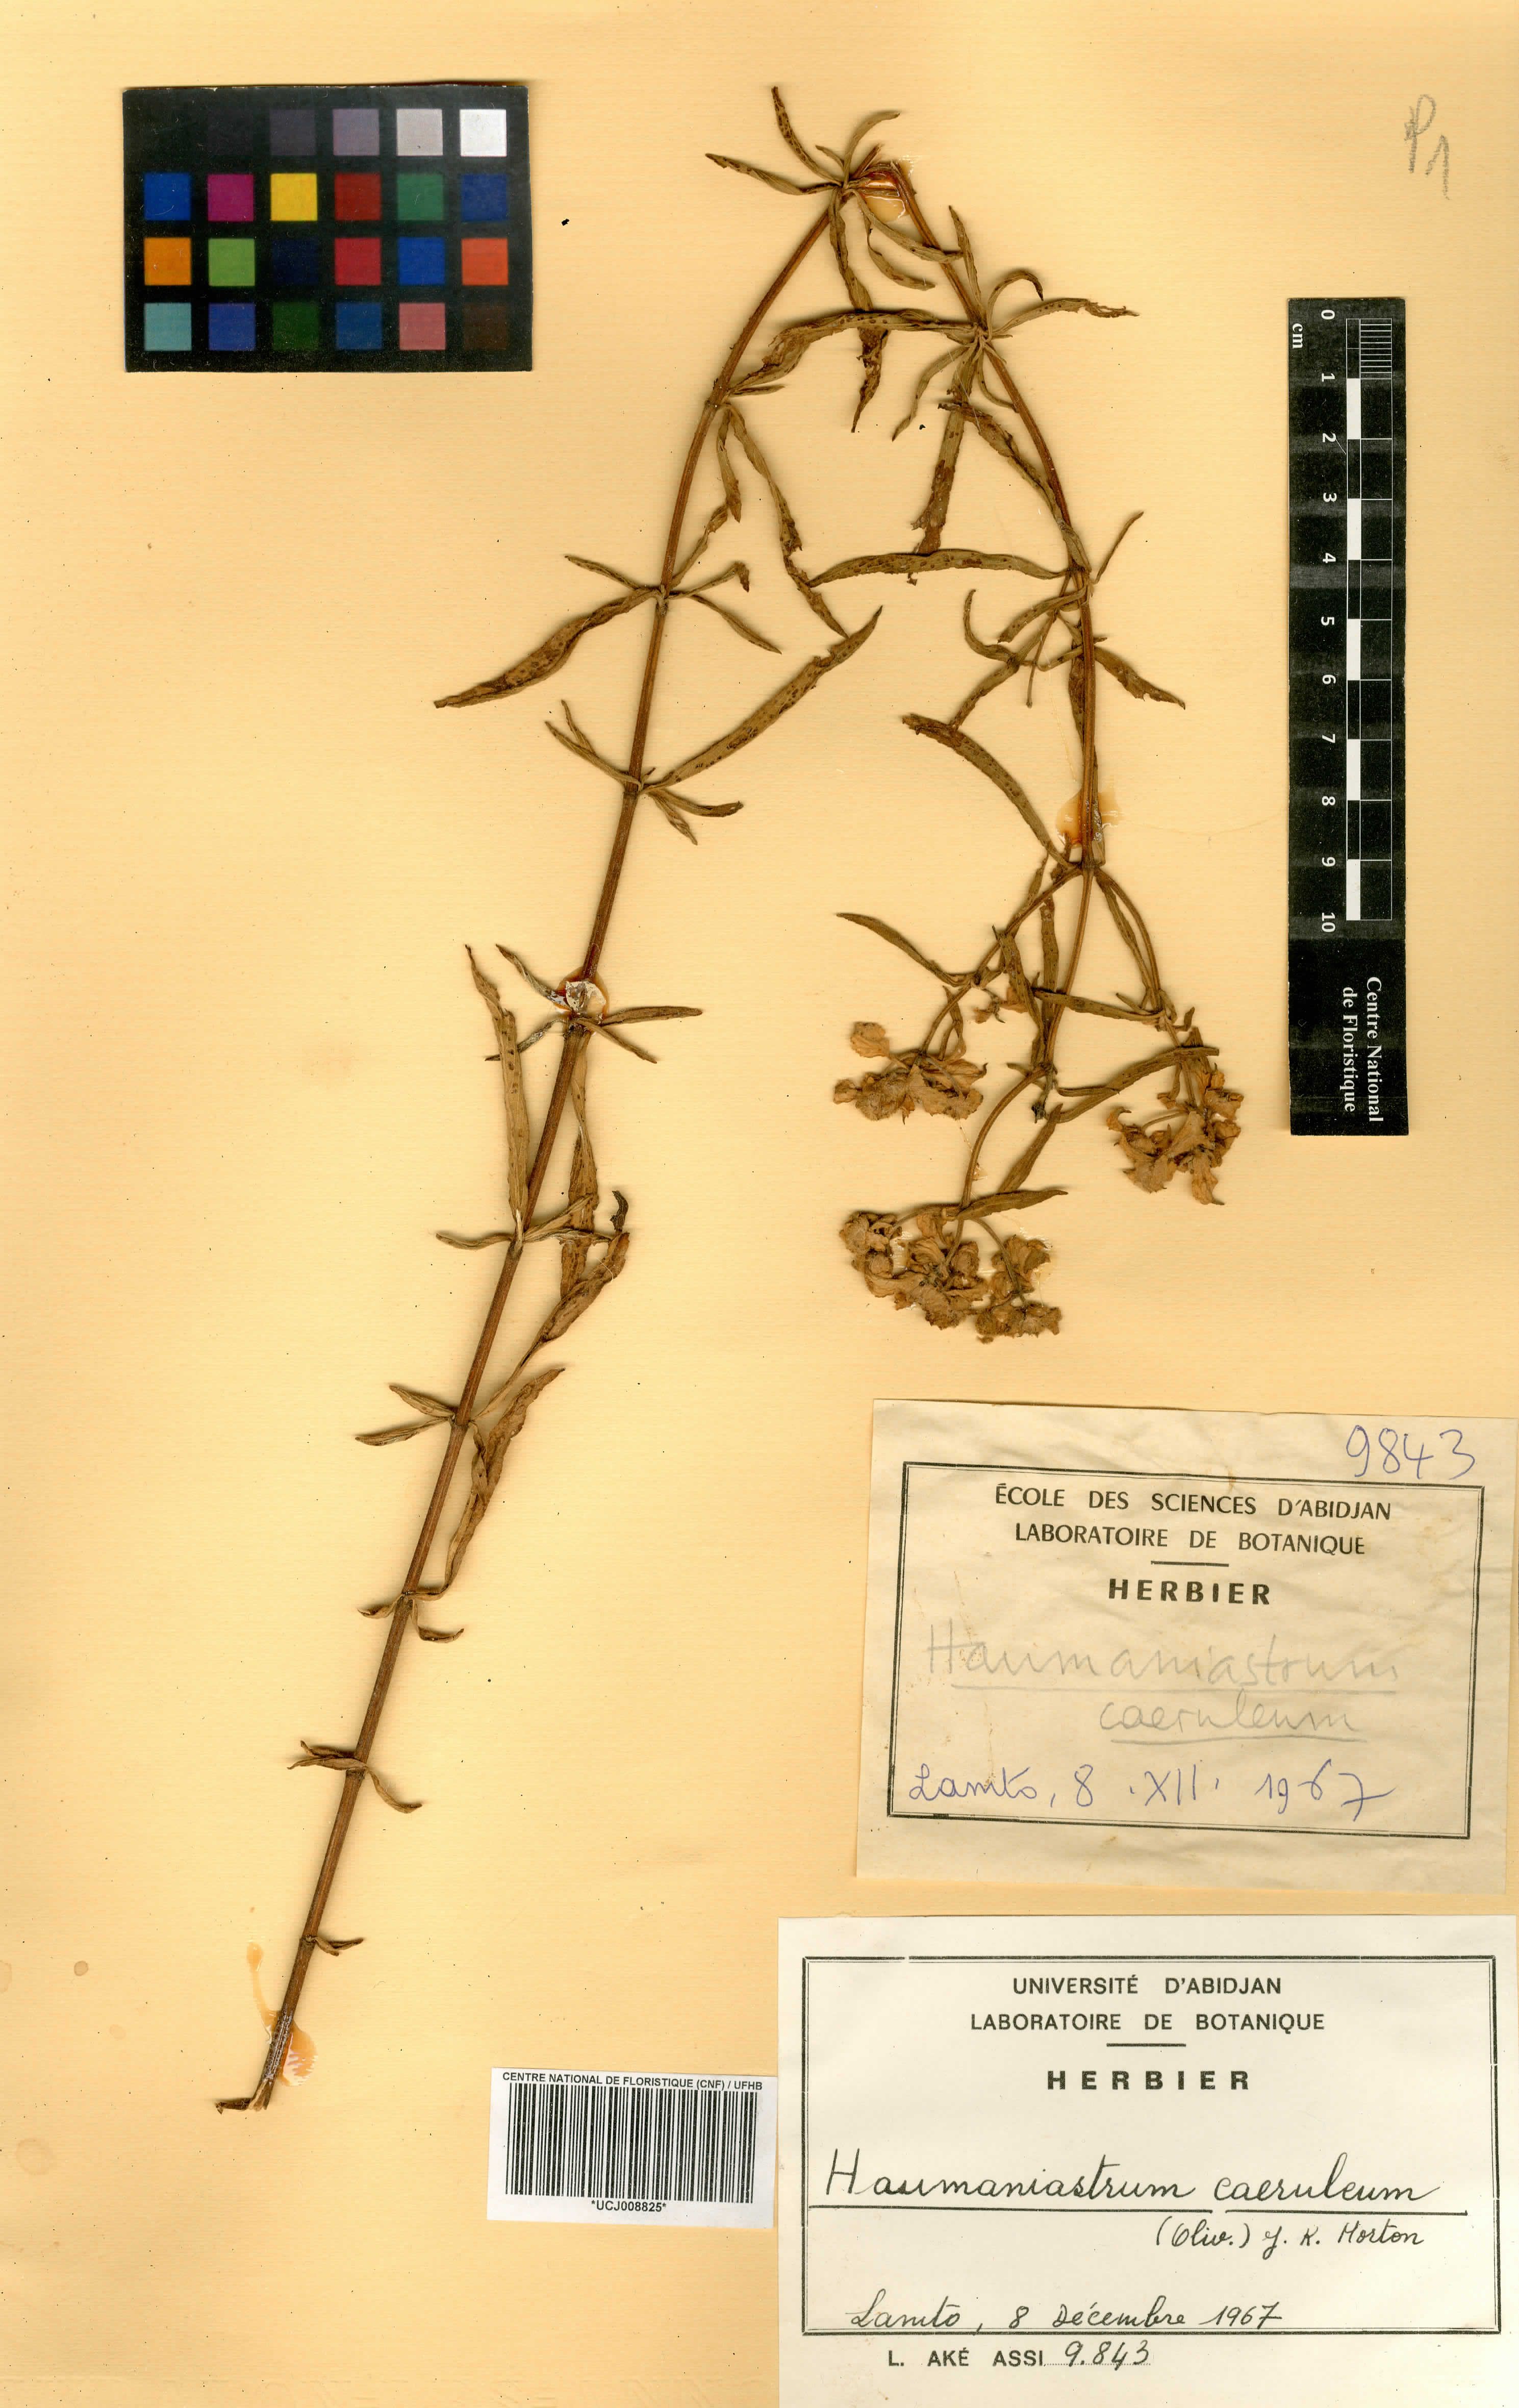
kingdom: Plantae
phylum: Tracheophyta
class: Magnoliopsida
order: Lamiales
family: Lamiaceae
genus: Haumaniastrum
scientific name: Haumaniastrum caeruleum
